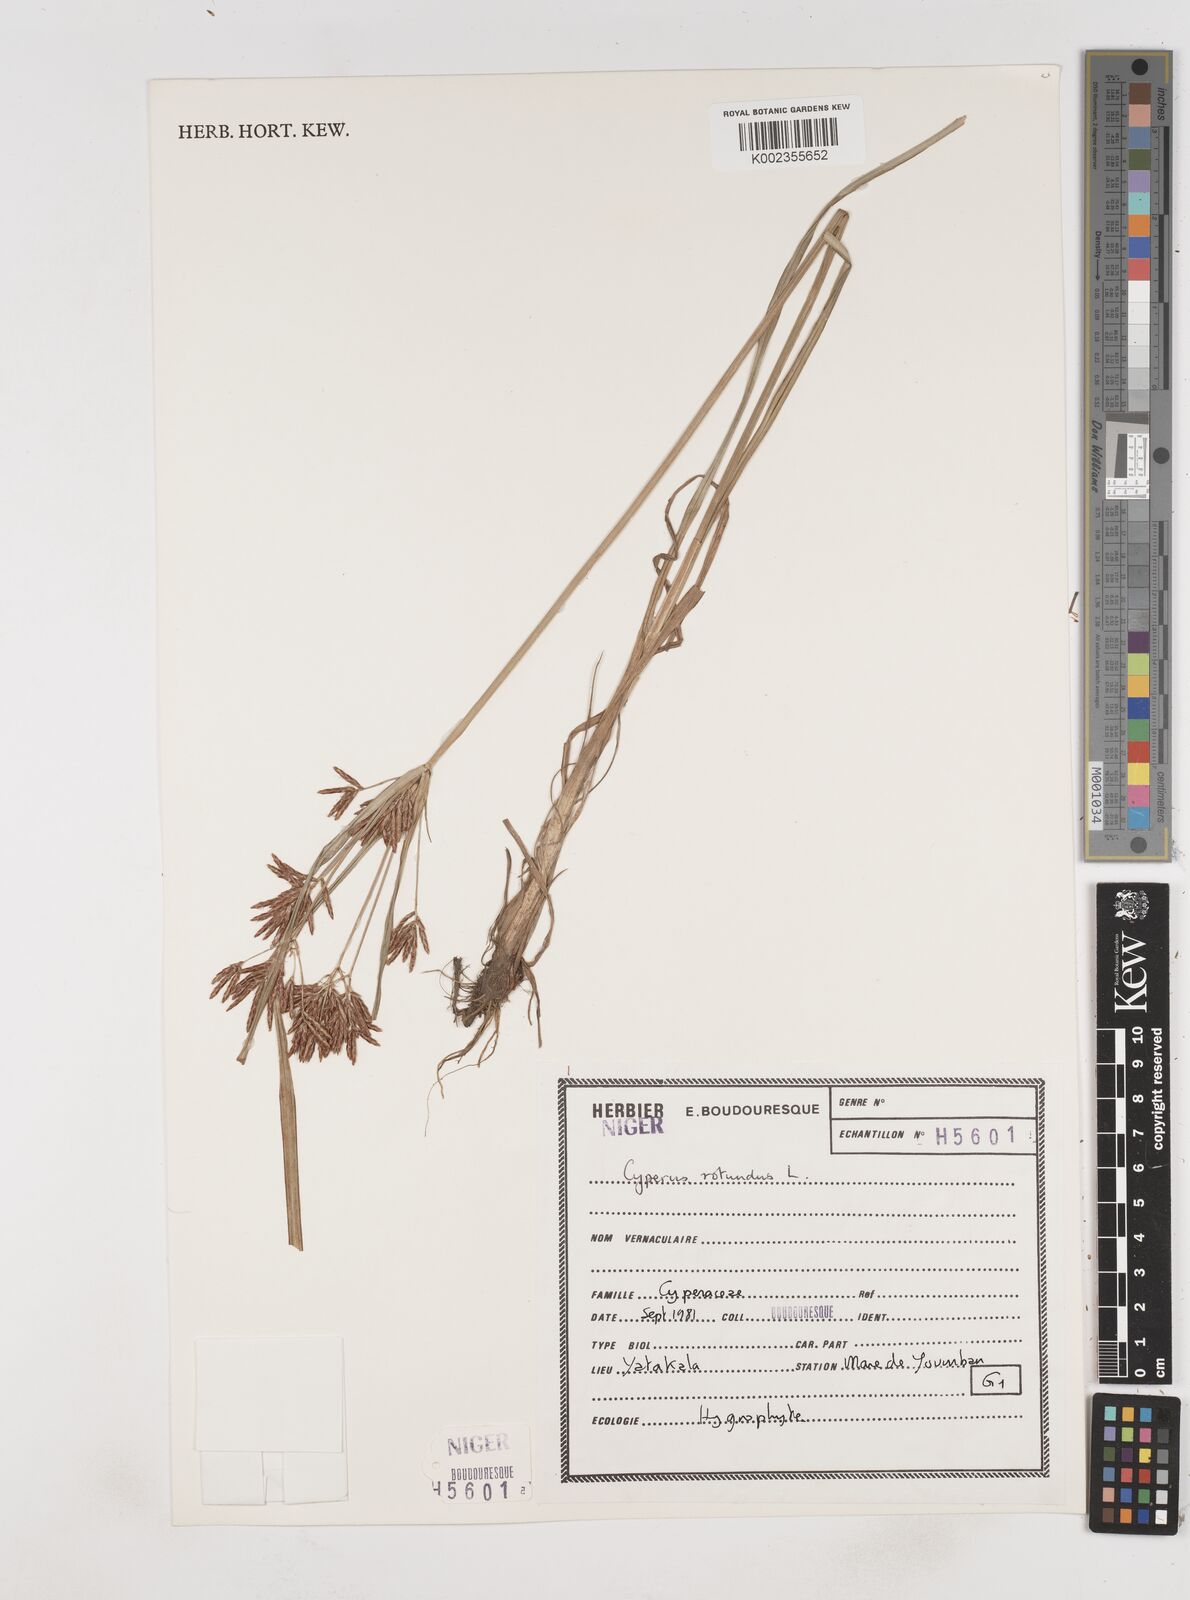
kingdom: Plantae
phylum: Tracheophyta
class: Liliopsida
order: Poales
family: Cyperaceae
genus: Cyperus
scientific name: Cyperus rotundus
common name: Nutgrass
